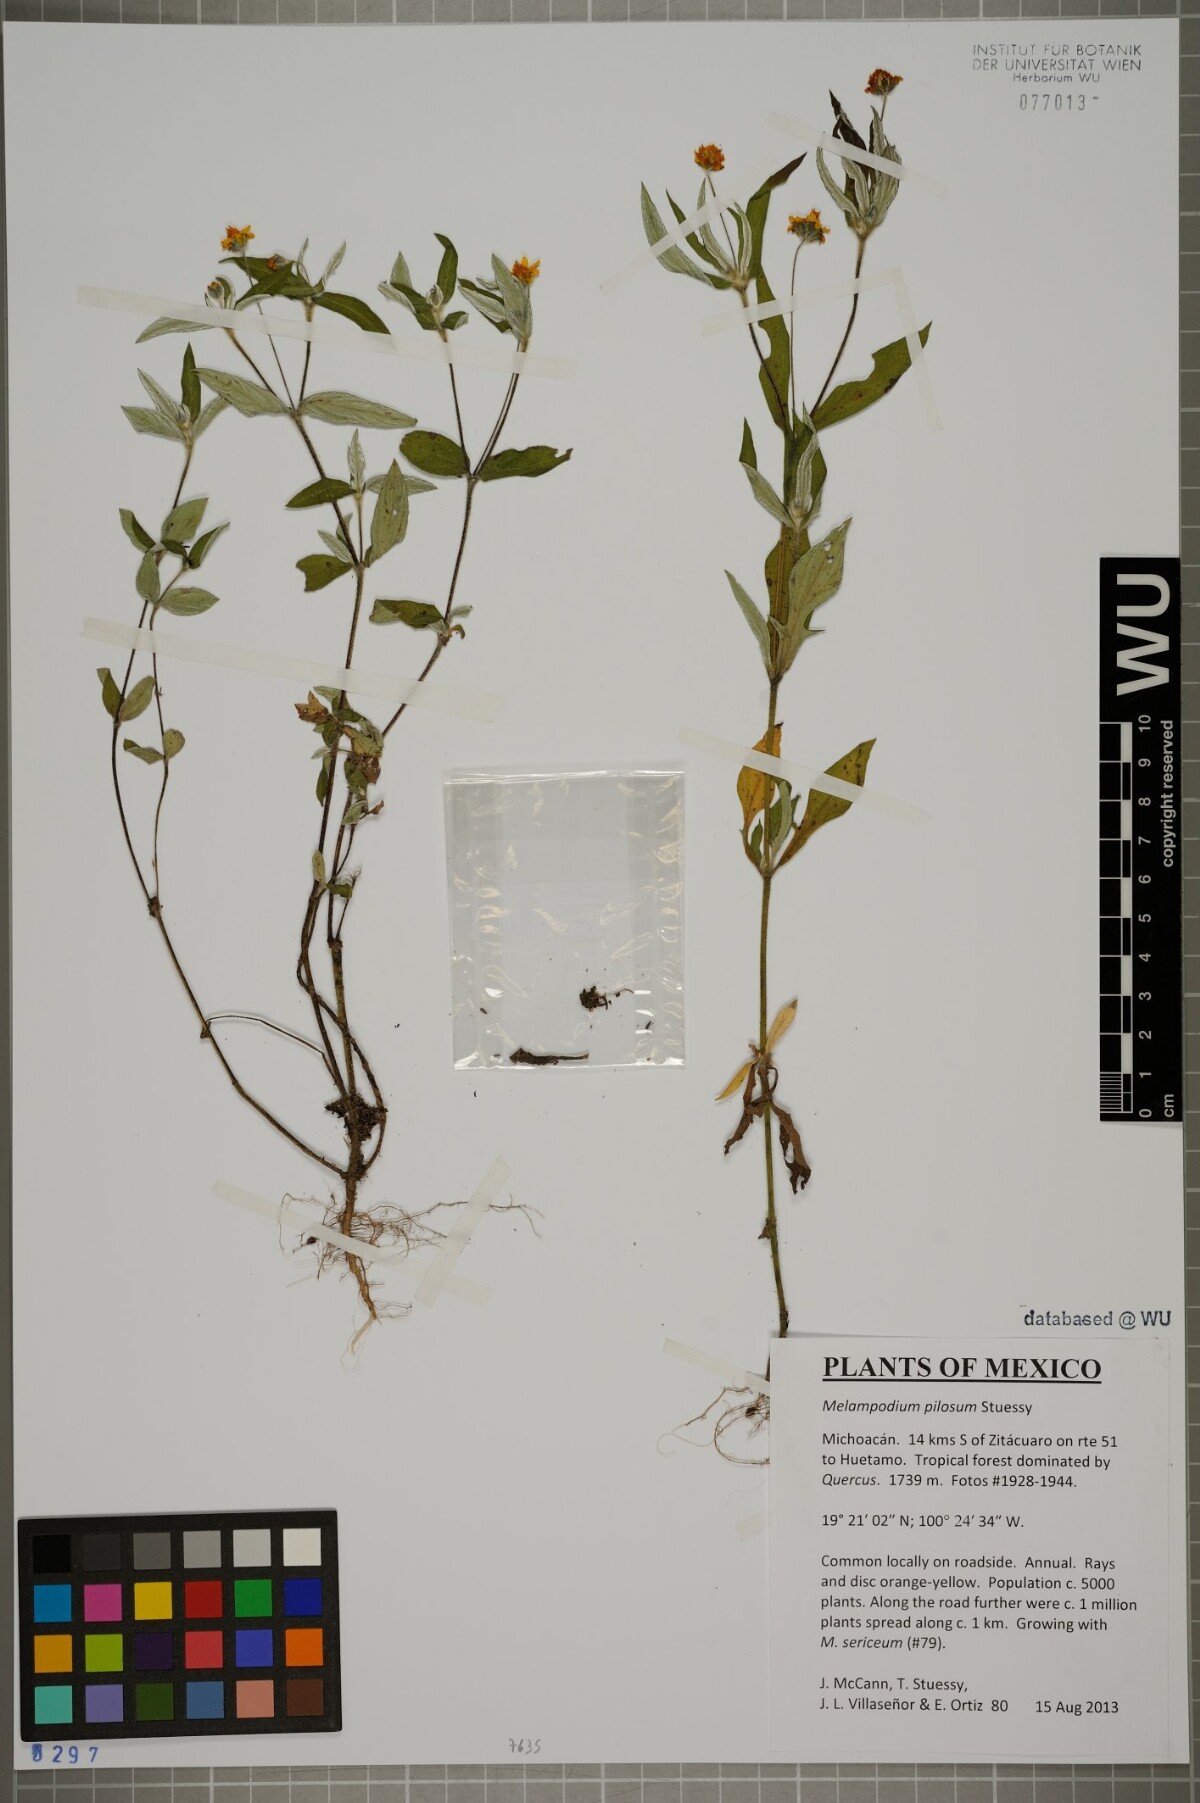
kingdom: Plantae
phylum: Tracheophyta
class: Magnoliopsida
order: Asterales
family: Asteraceae
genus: Melampodium
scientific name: Melampodium pilosum
